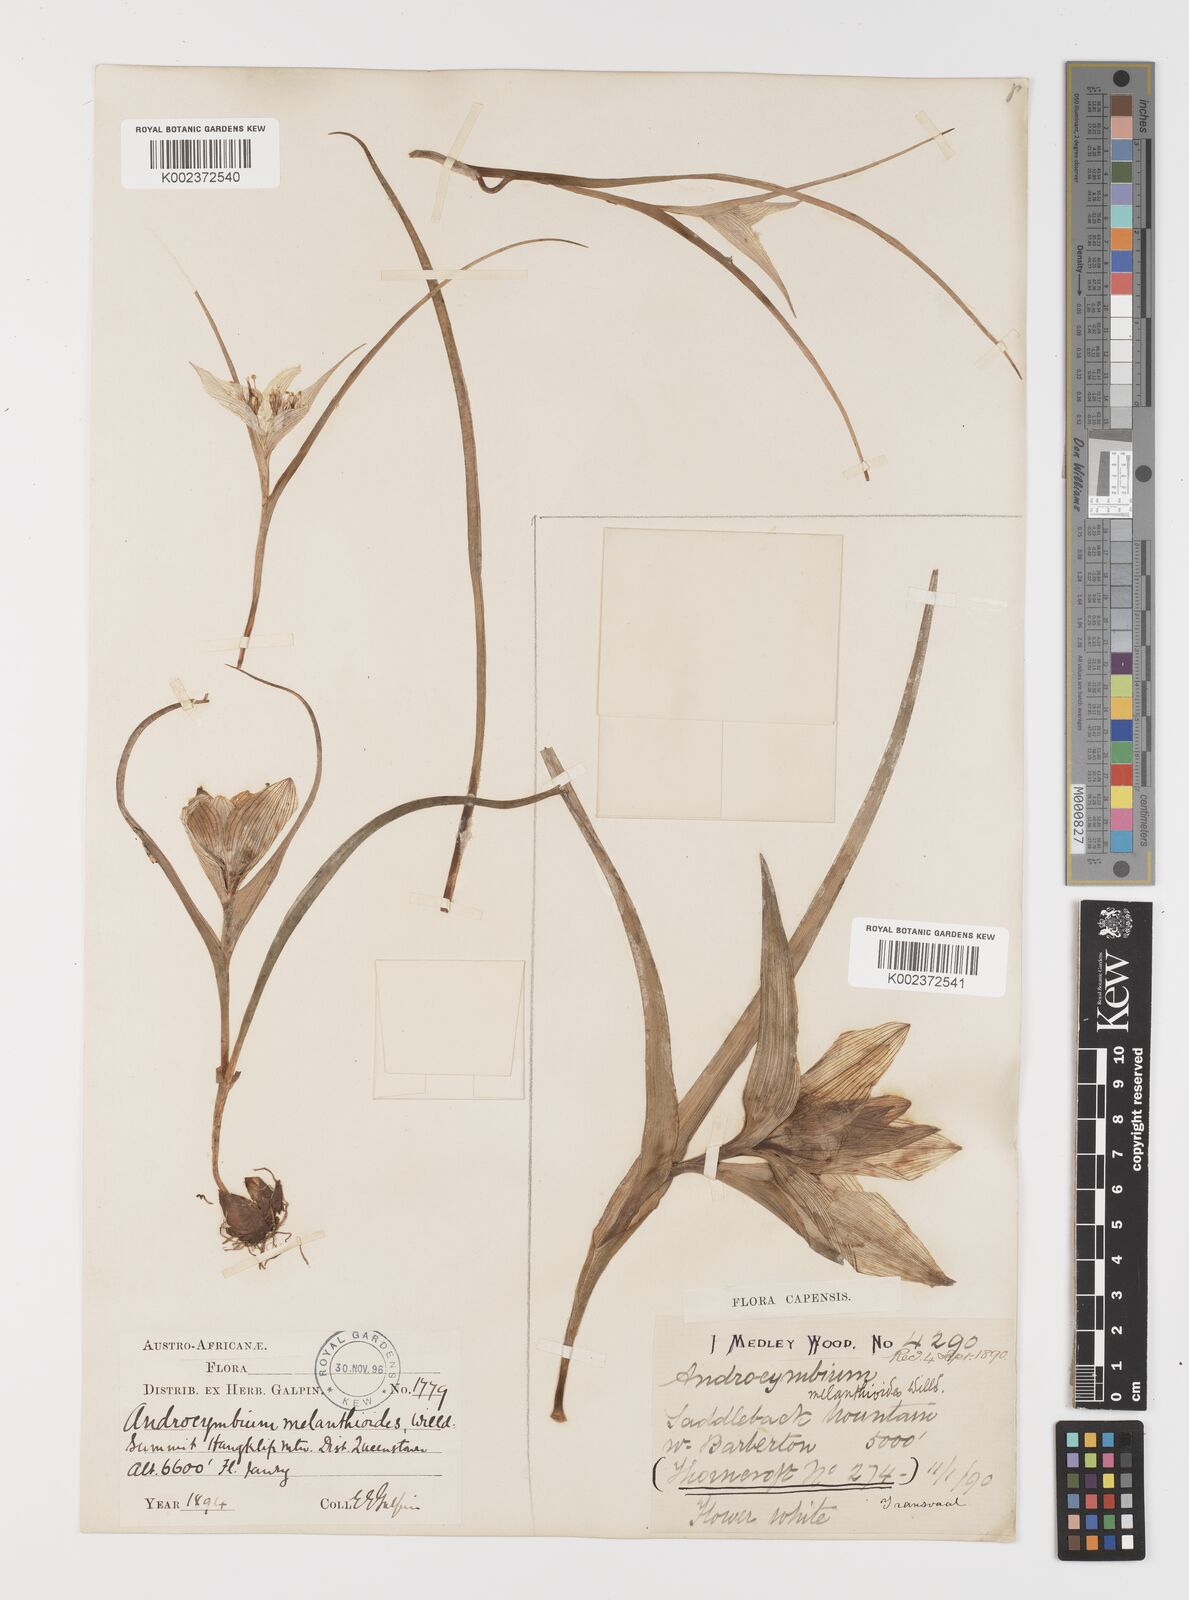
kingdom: Plantae
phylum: Tracheophyta
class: Liliopsida
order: Liliales
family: Colchicaceae
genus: Colchicum
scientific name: Colchicum melanthioides
